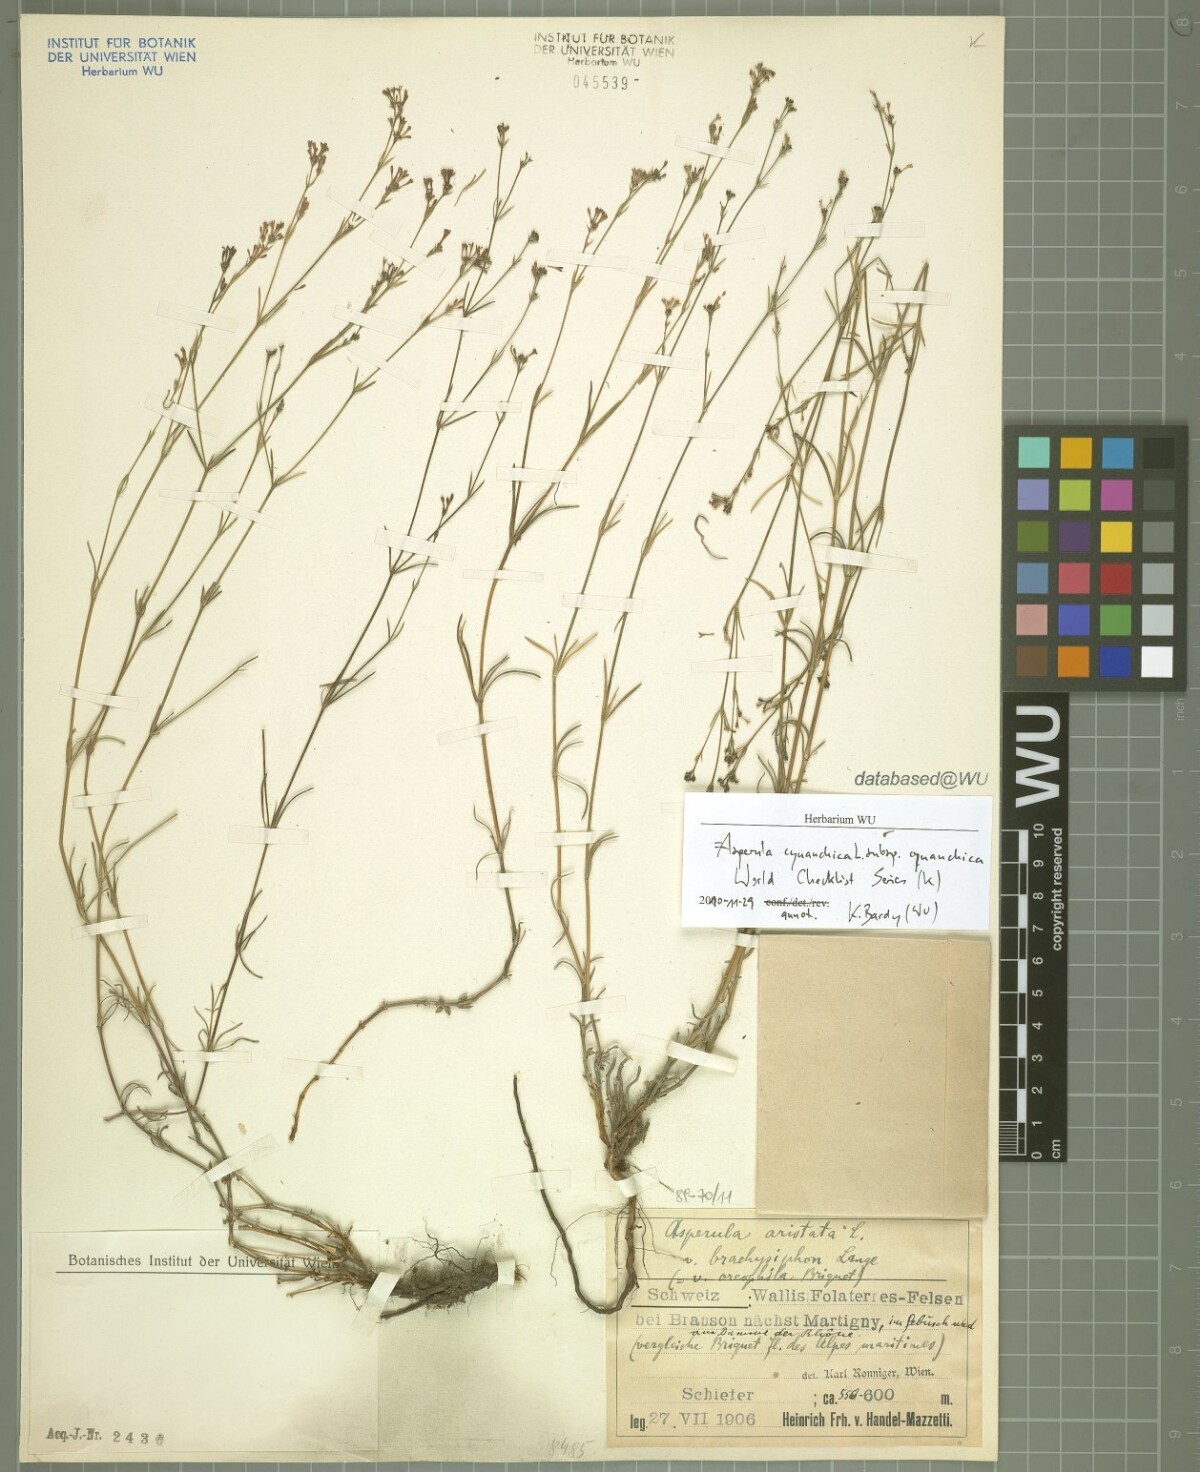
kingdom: Plantae
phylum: Tracheophyta
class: Magnoliopsida
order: Gentianales
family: Rubiaceae
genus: Cynanchica
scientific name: Cynanchica pyrenaica
